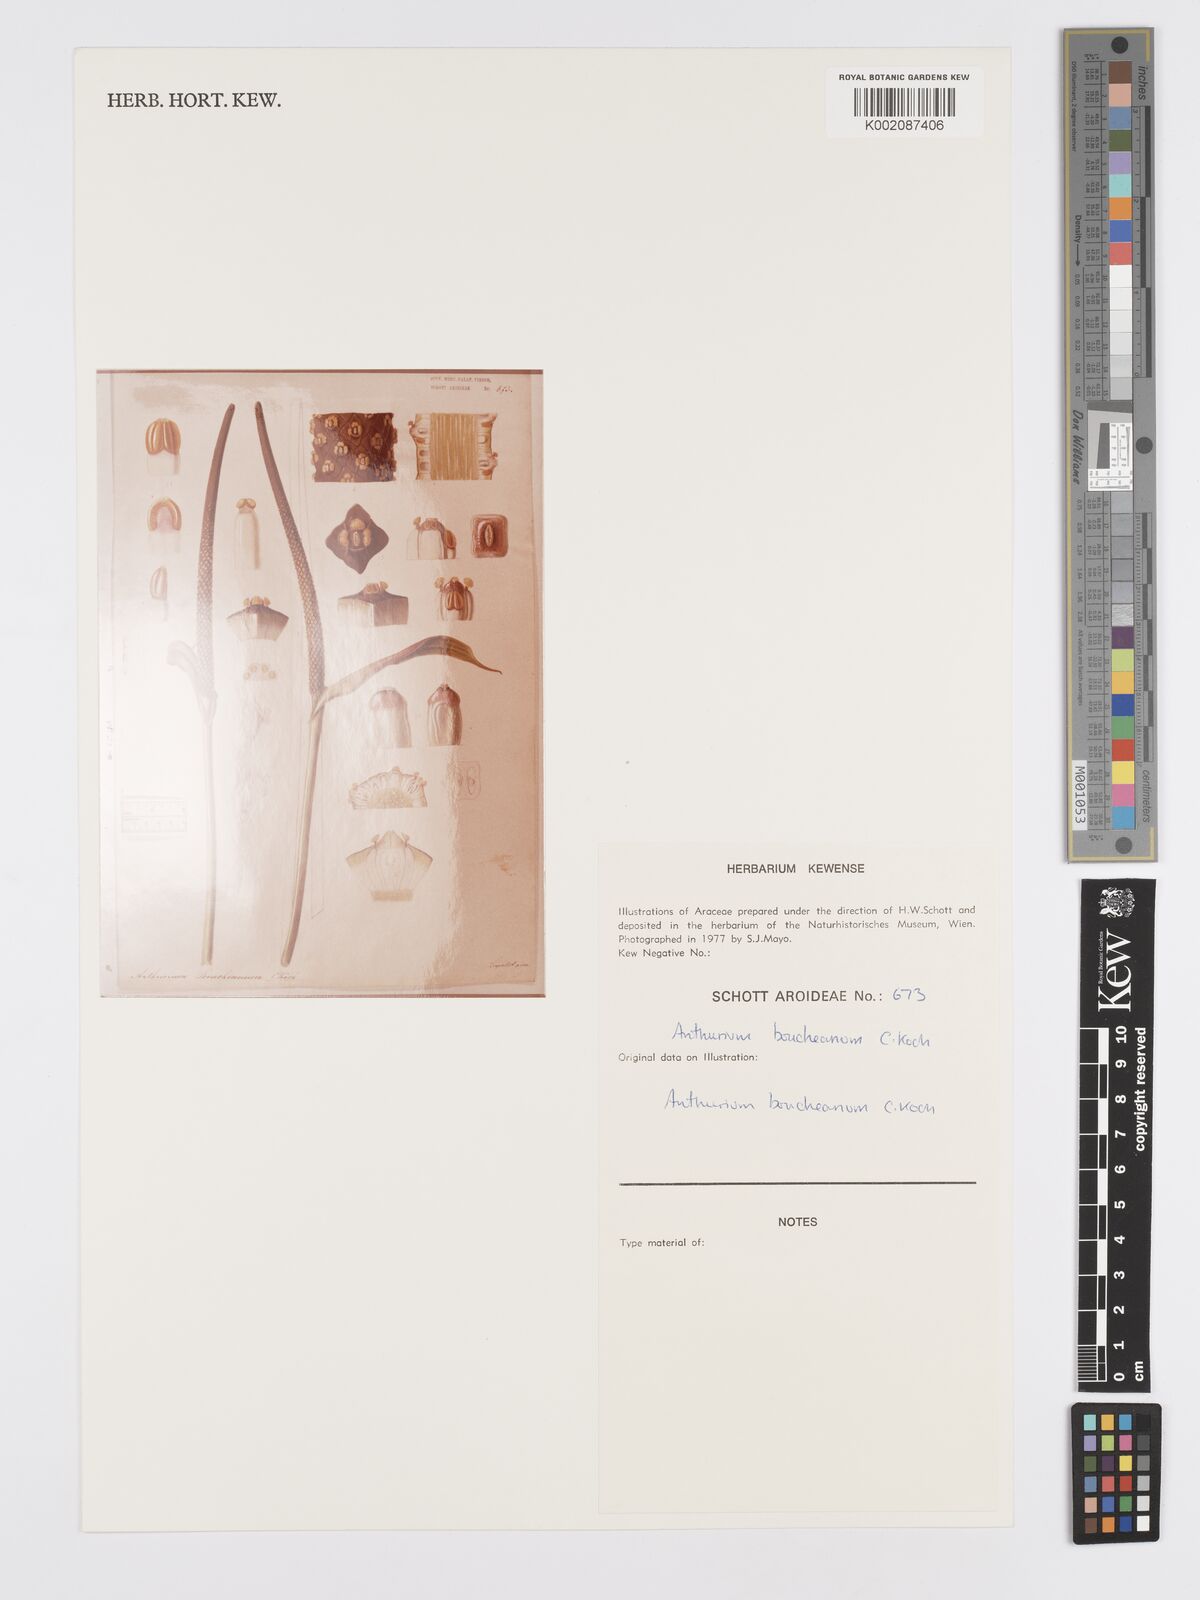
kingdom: Plantae
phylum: Tracheophyta
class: Liliopsida
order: Alismatales
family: Araceae
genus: Anthurium
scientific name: Anthurium cartilagineum
